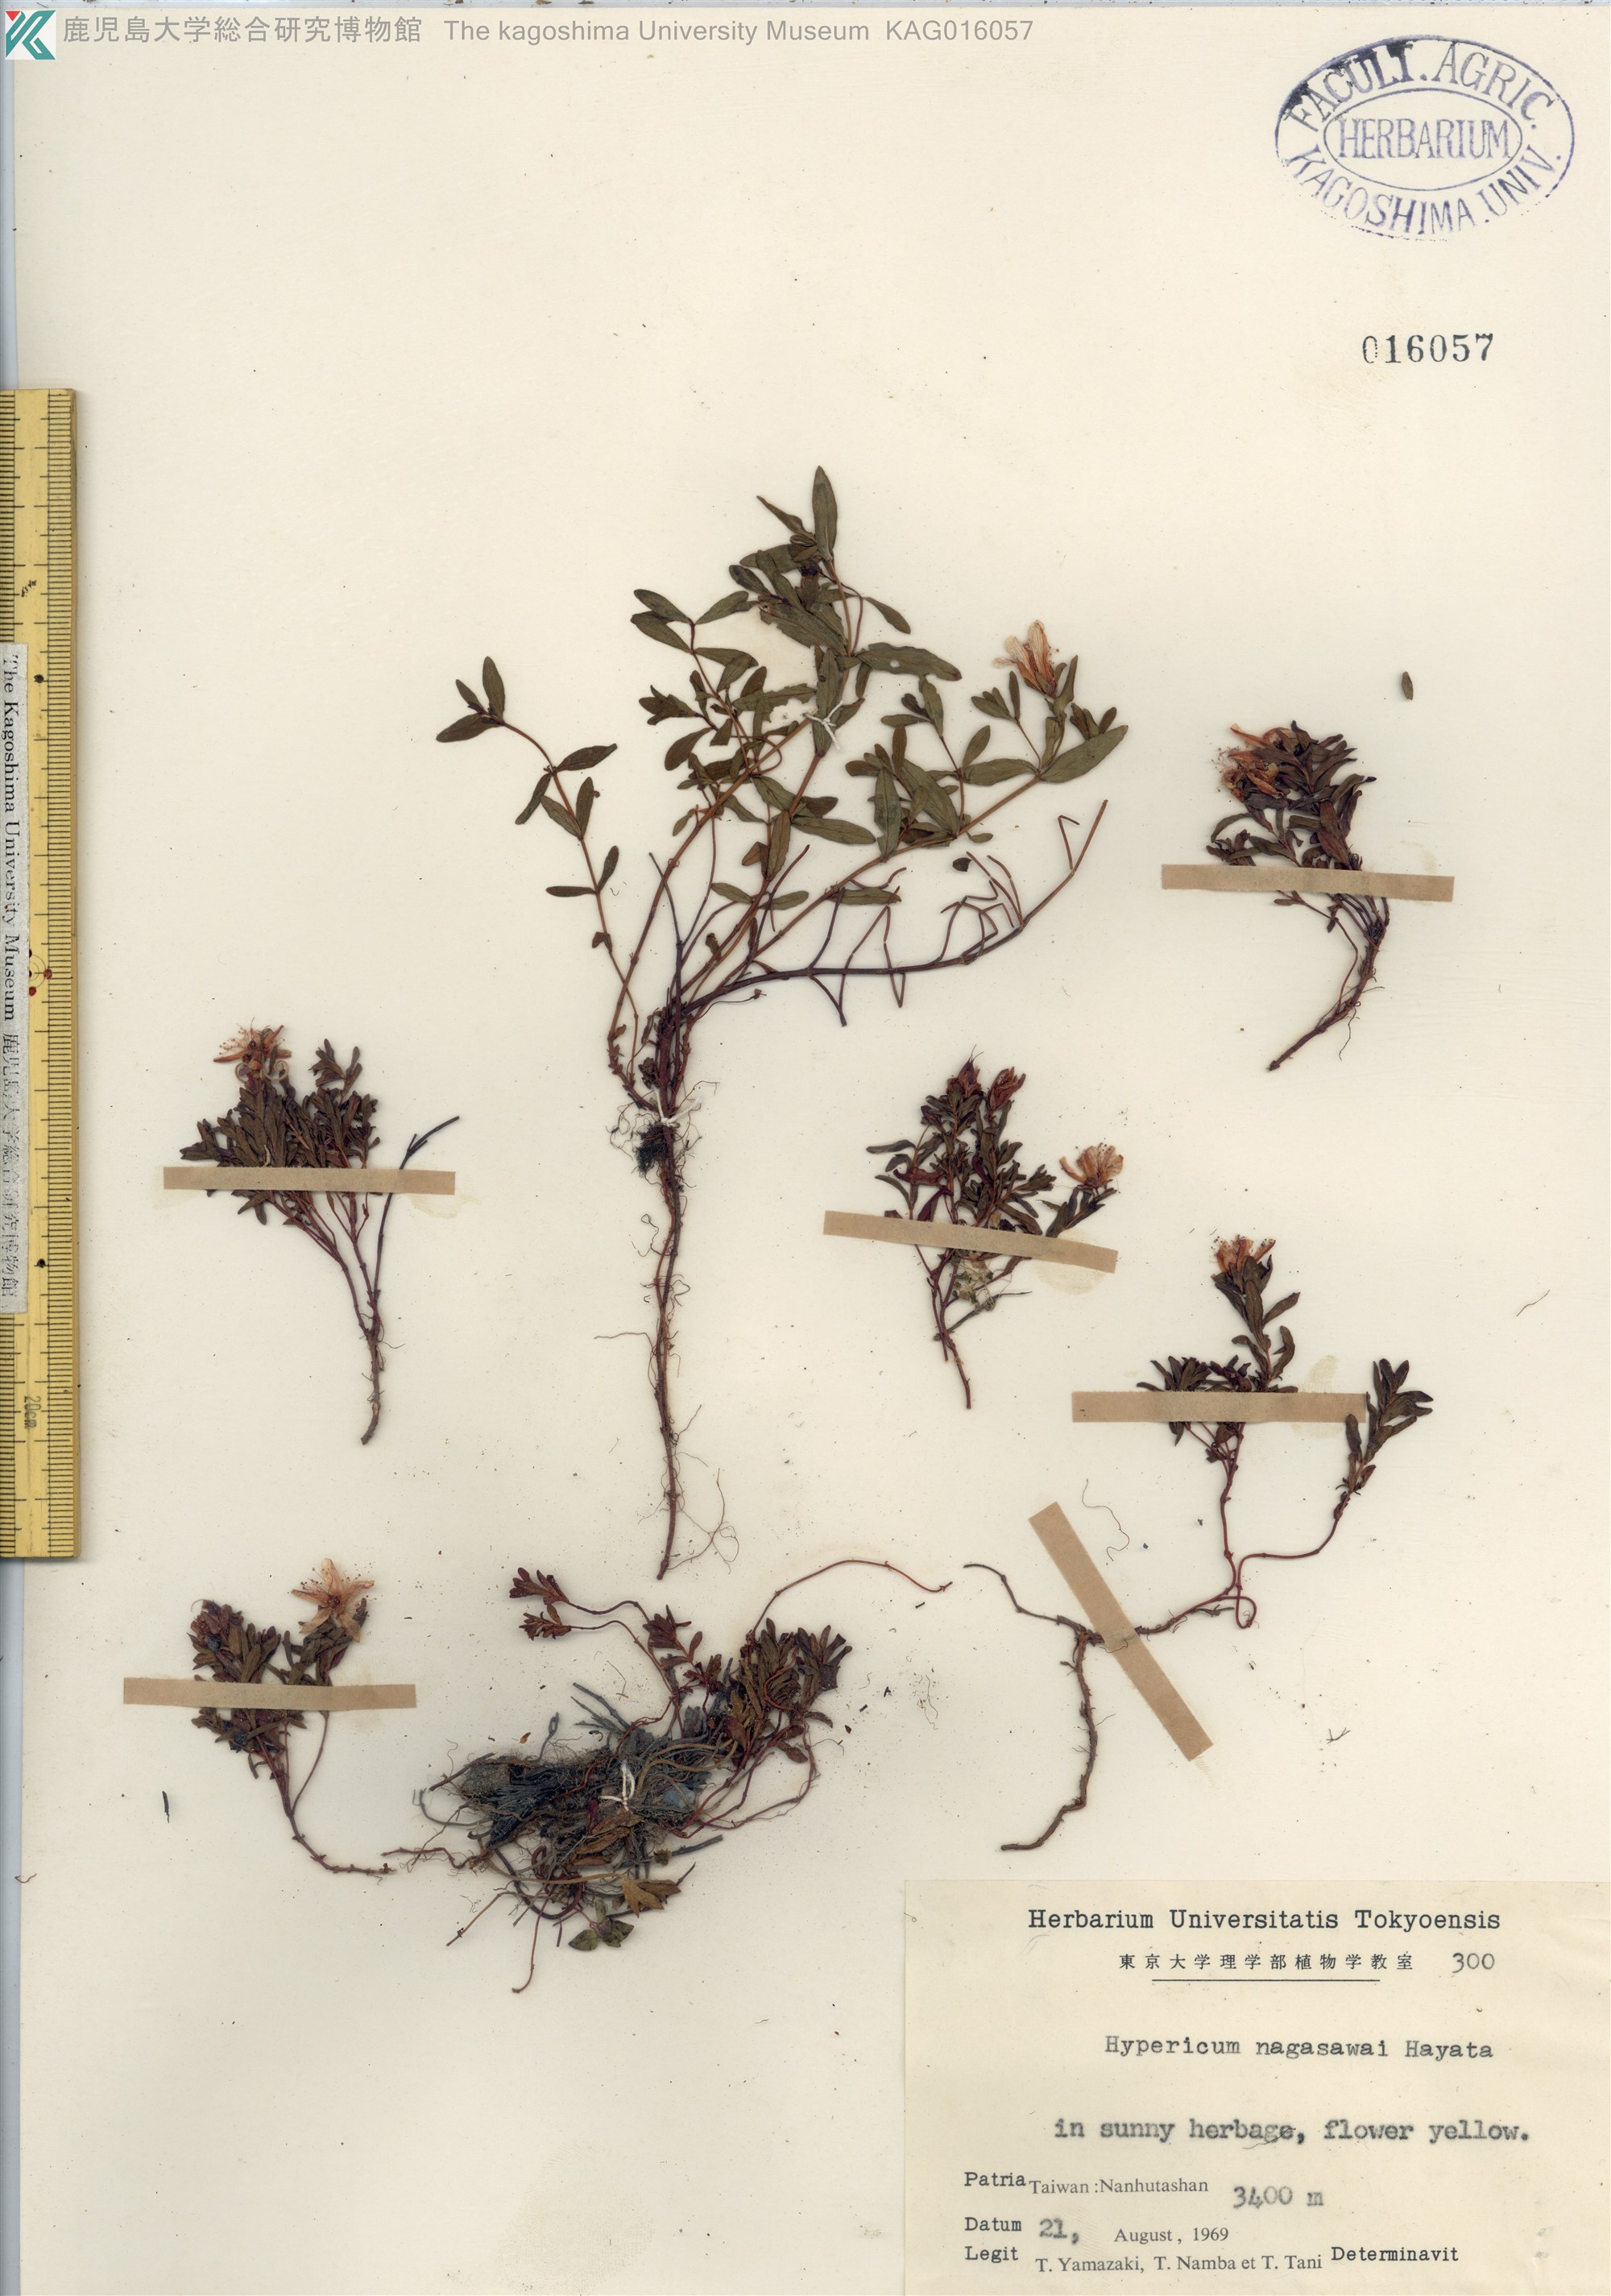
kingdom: Plantae
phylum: Tracheophyta
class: Magnoliopsida
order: Malpighiales
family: Hypericaceae
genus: Hypericum
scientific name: Hypericum nagasawae
